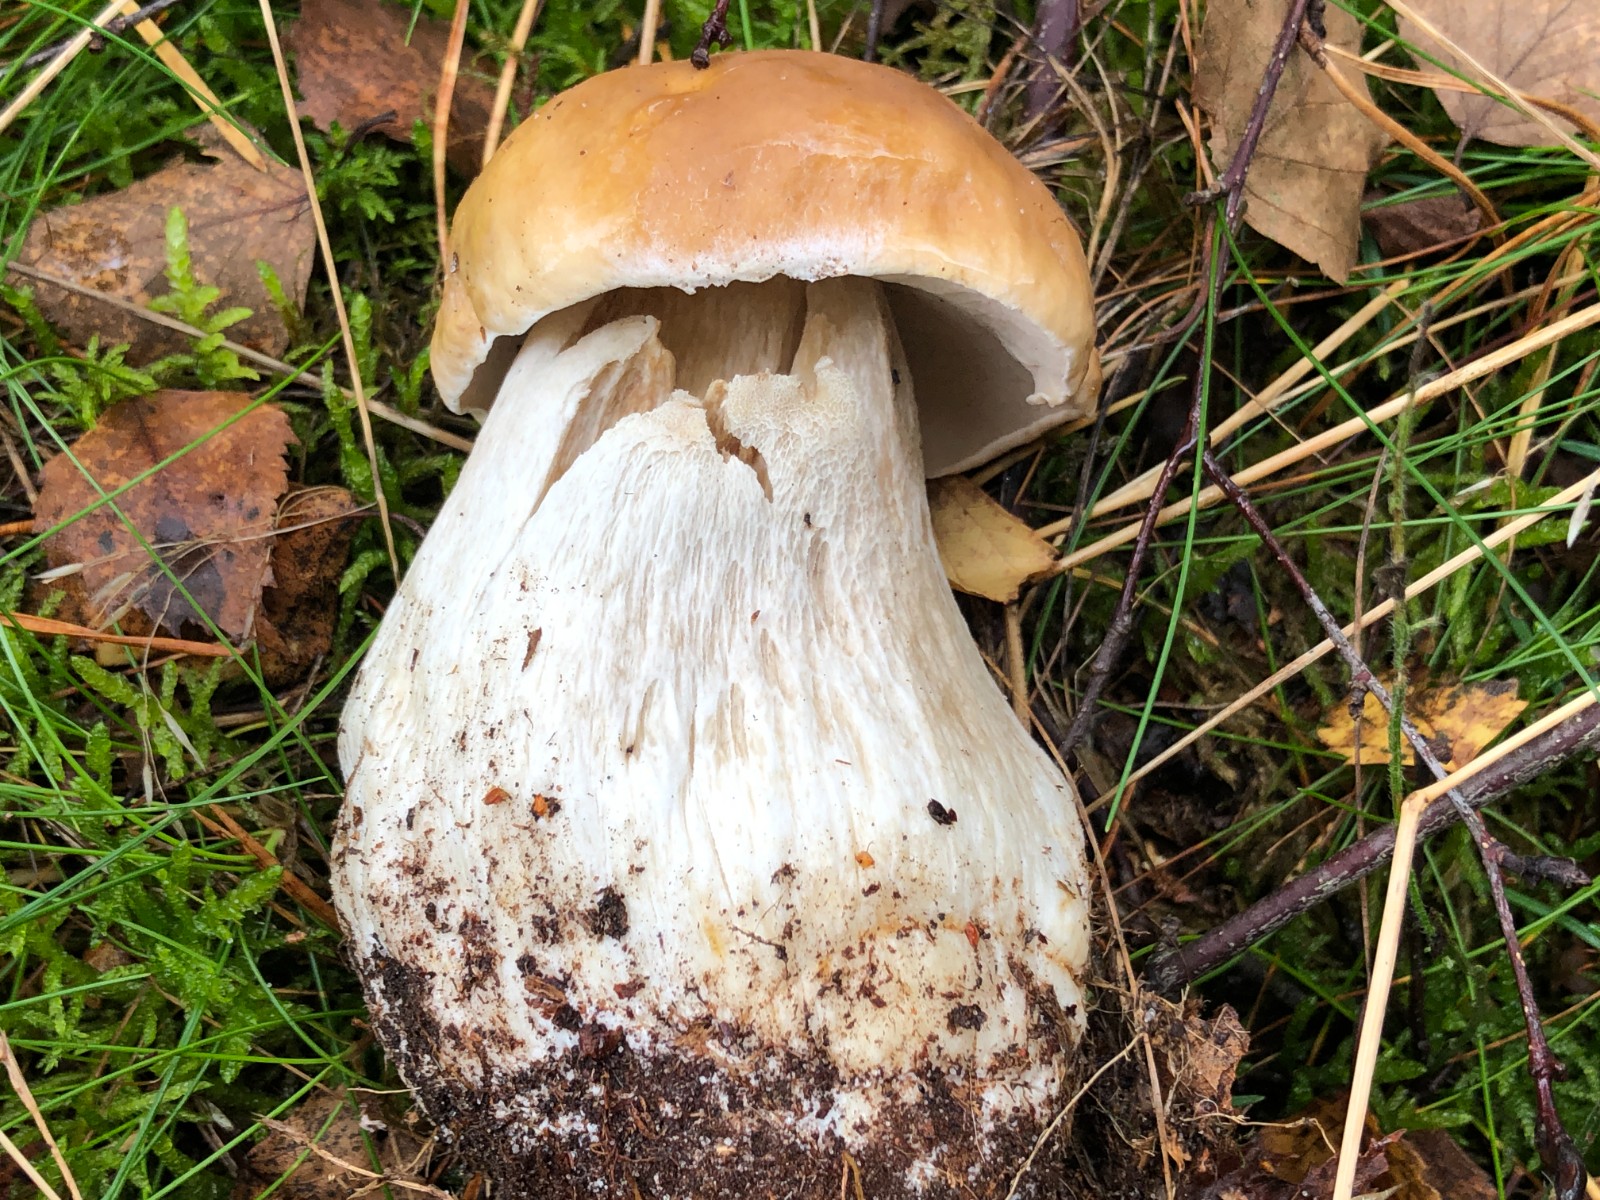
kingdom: Fungi
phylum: Basidiomycota
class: Agaricomycetes
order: Boletales
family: Boletaceae
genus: Boletus
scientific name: Boletus edulis
